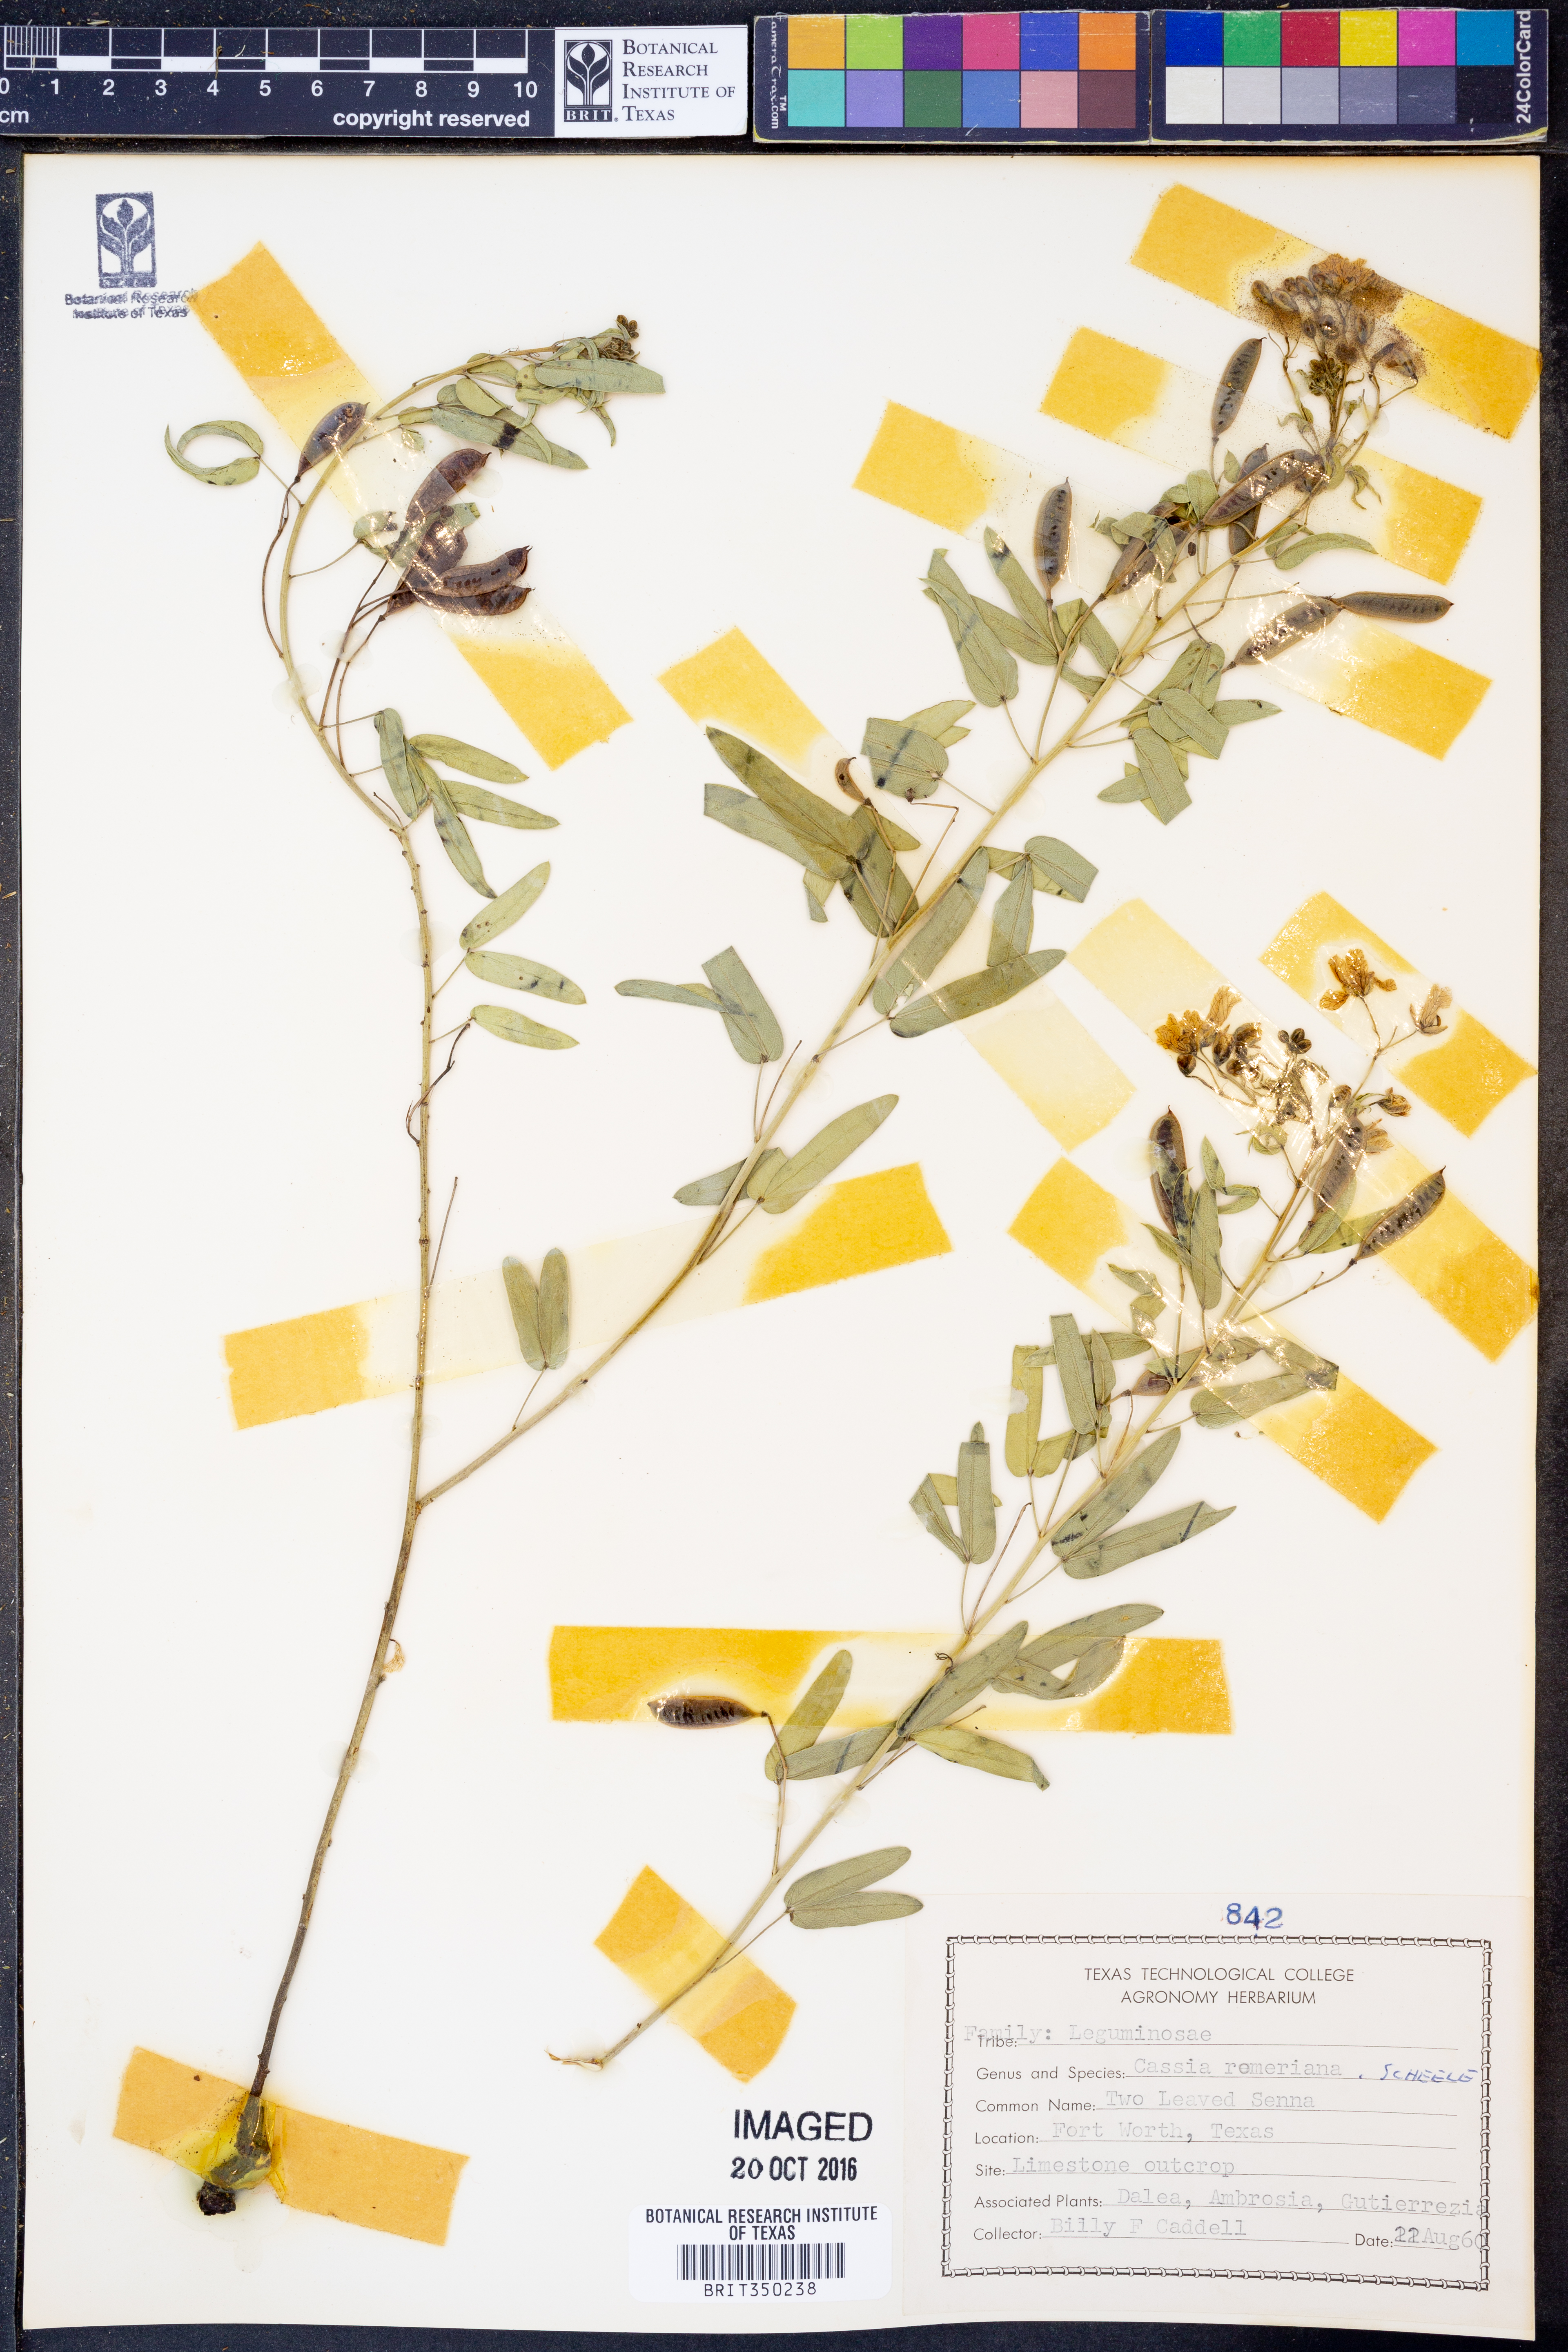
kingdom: Plantae
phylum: Tracheophyta
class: Magnoliopsida
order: Fabales
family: Fabaceae
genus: Senna
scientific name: Senna roemeriana
